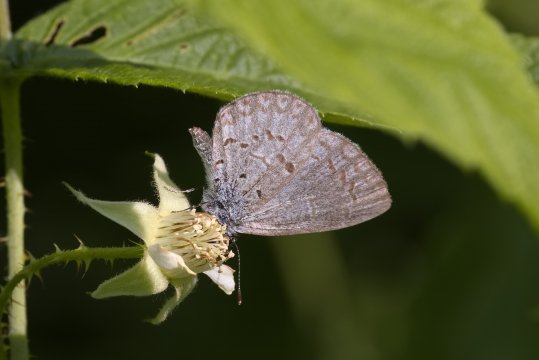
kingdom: Animalia
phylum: Arthropoda
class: Insecta
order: Lepidoptera
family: Lycaenidae
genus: Celastrina
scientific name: Celastrina lucia
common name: Northern Spring Azure
